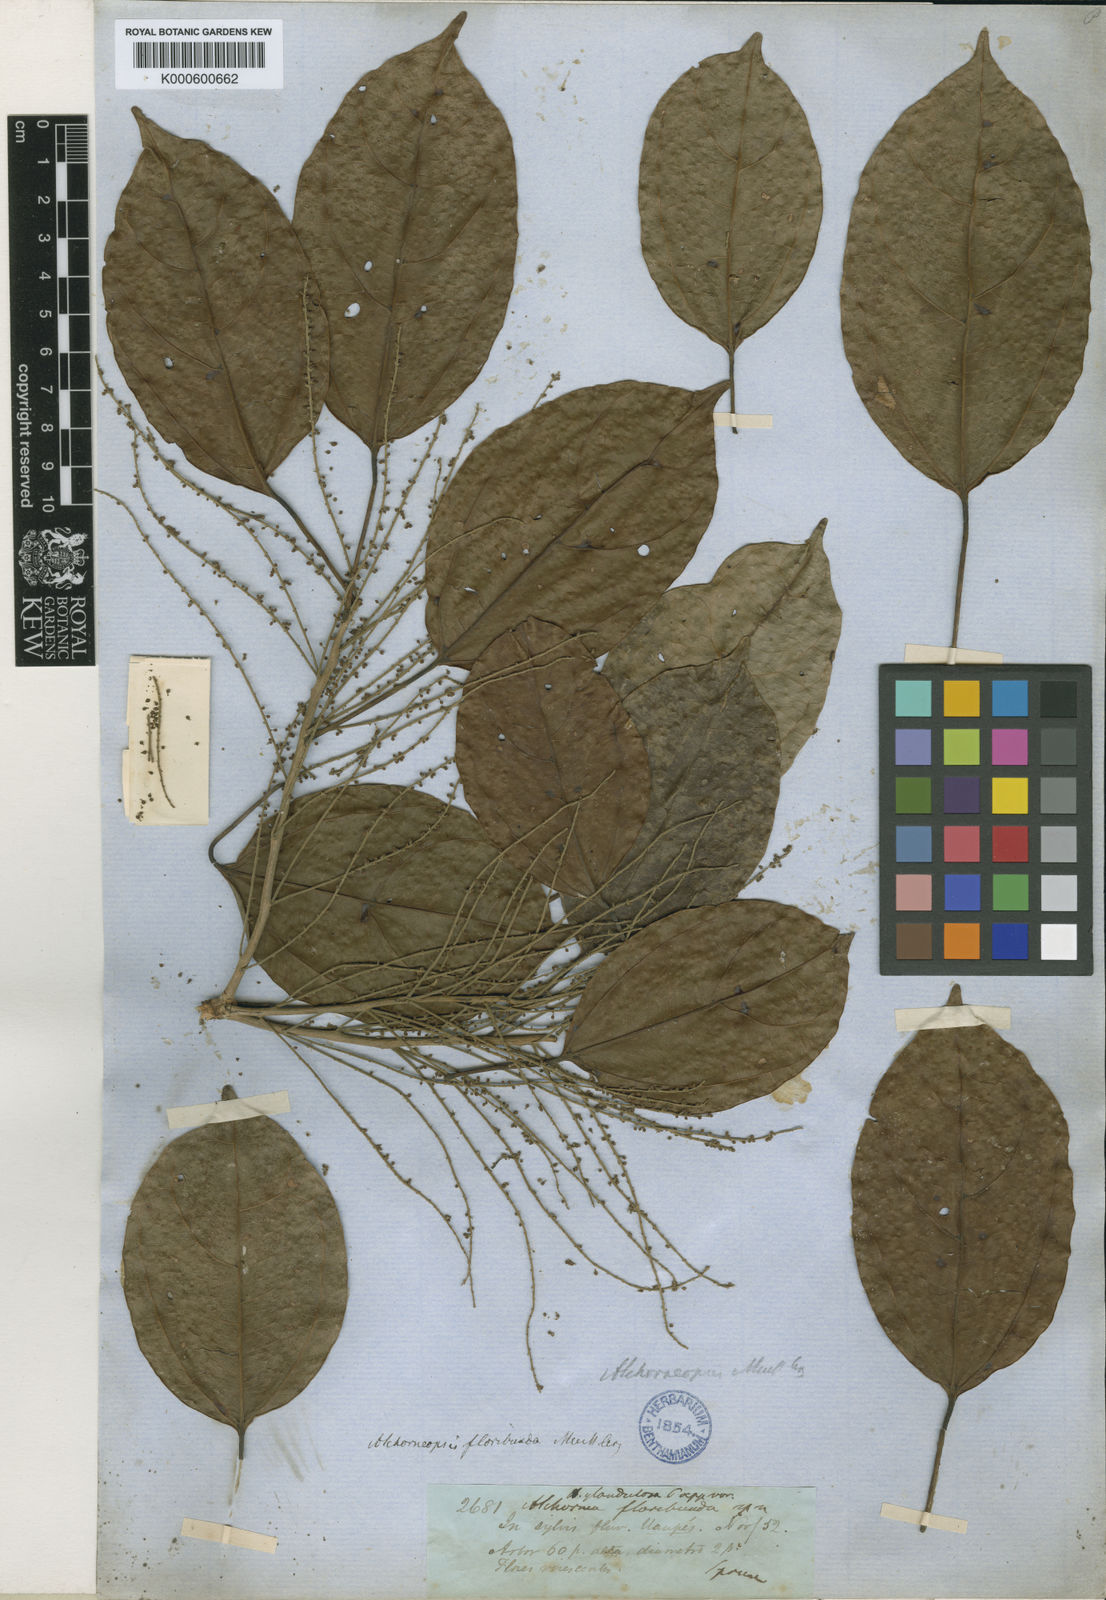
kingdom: Plantae
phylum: Tracheophyta
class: Magnoliopsida
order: Malpighiales
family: Euphorbiaceae
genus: Alchorneopsis
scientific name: Alchorneopsis
